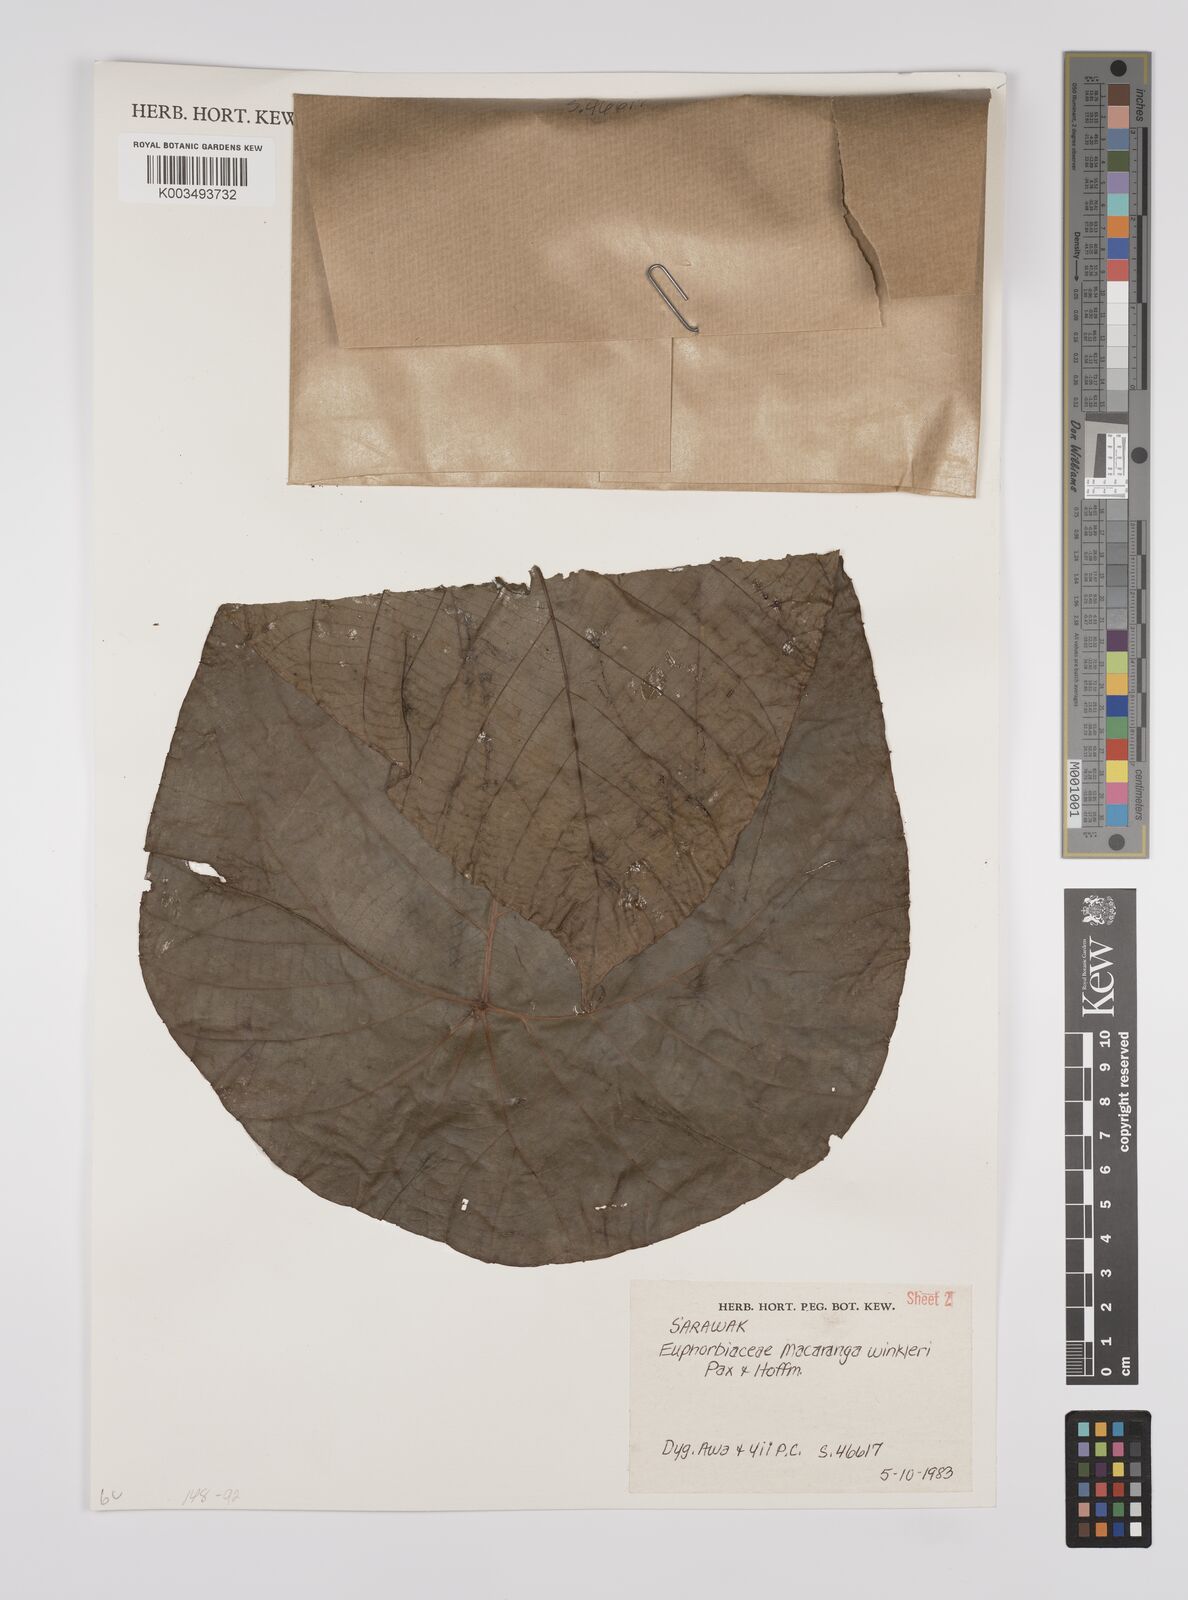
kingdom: Plantae
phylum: Tracheophyta
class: Magnoliopsida
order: Malpighiales
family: Euphorbiaceae
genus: Macaranga
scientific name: Macaranga winkleri
